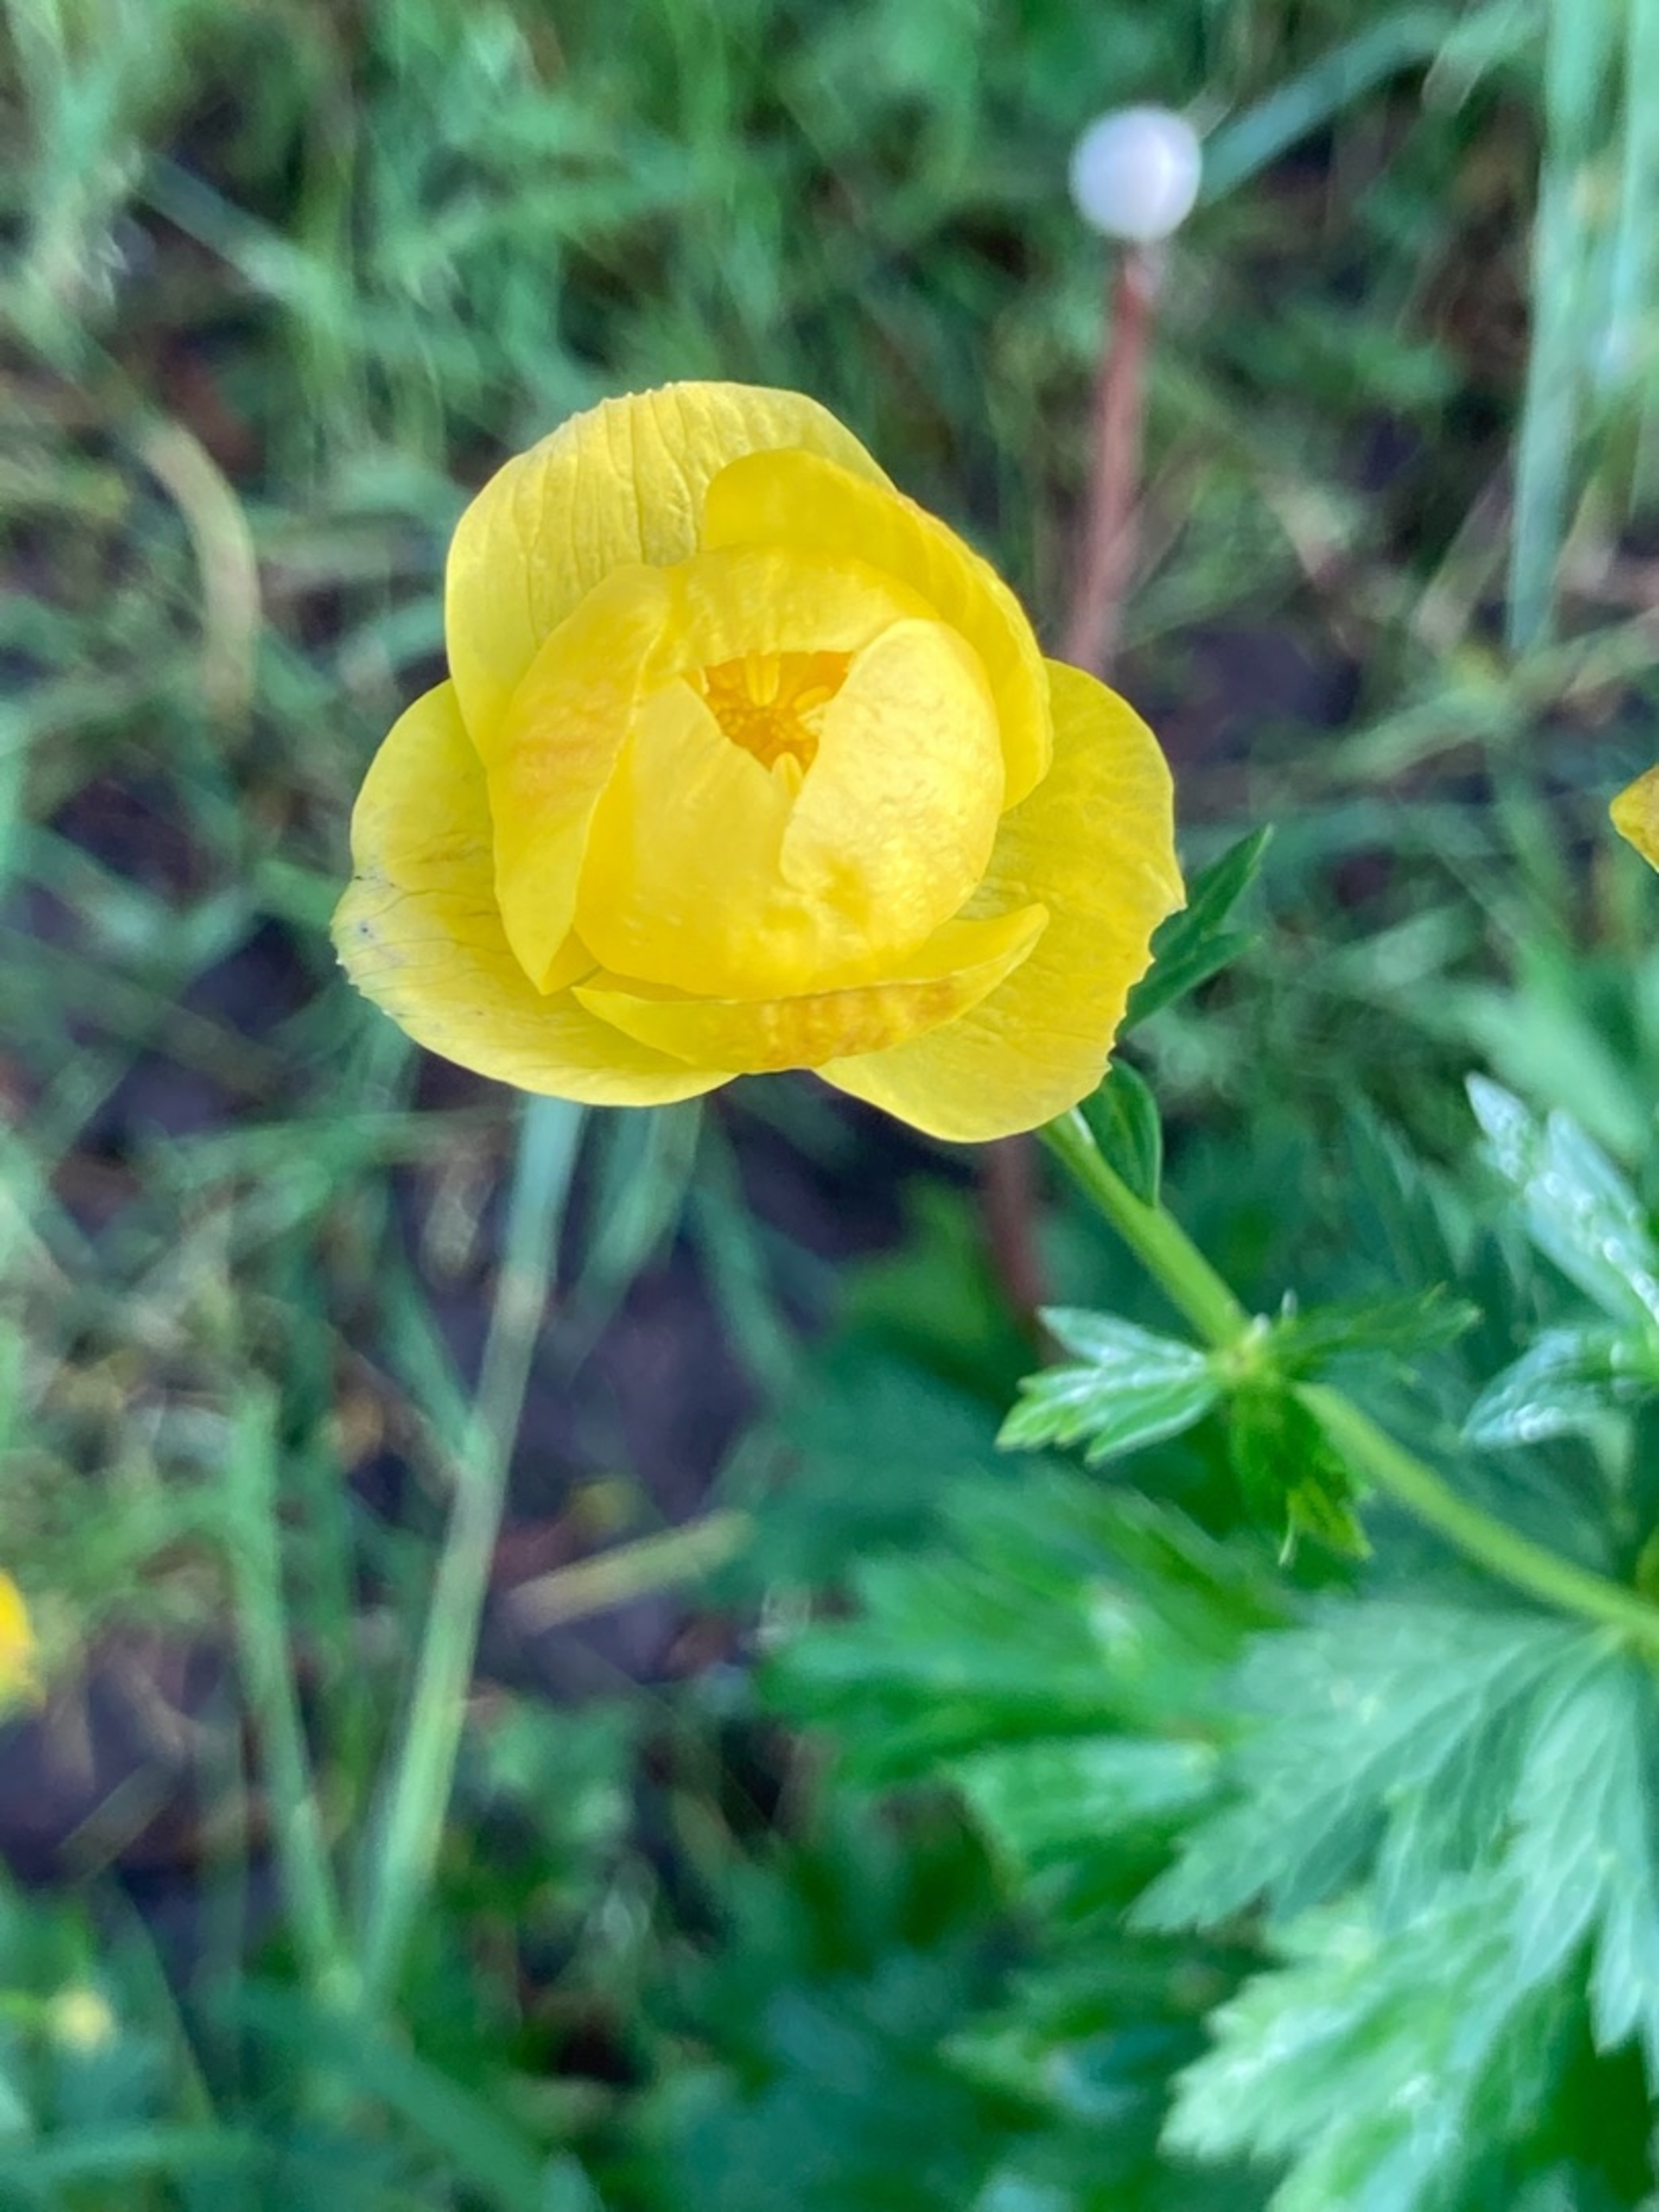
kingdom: Plantae
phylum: Tracheophyta
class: Magnoliopsida
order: Ranunculales
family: Ranunculaceae
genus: Trollius
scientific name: Trollius europaeus
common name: Engblomme
